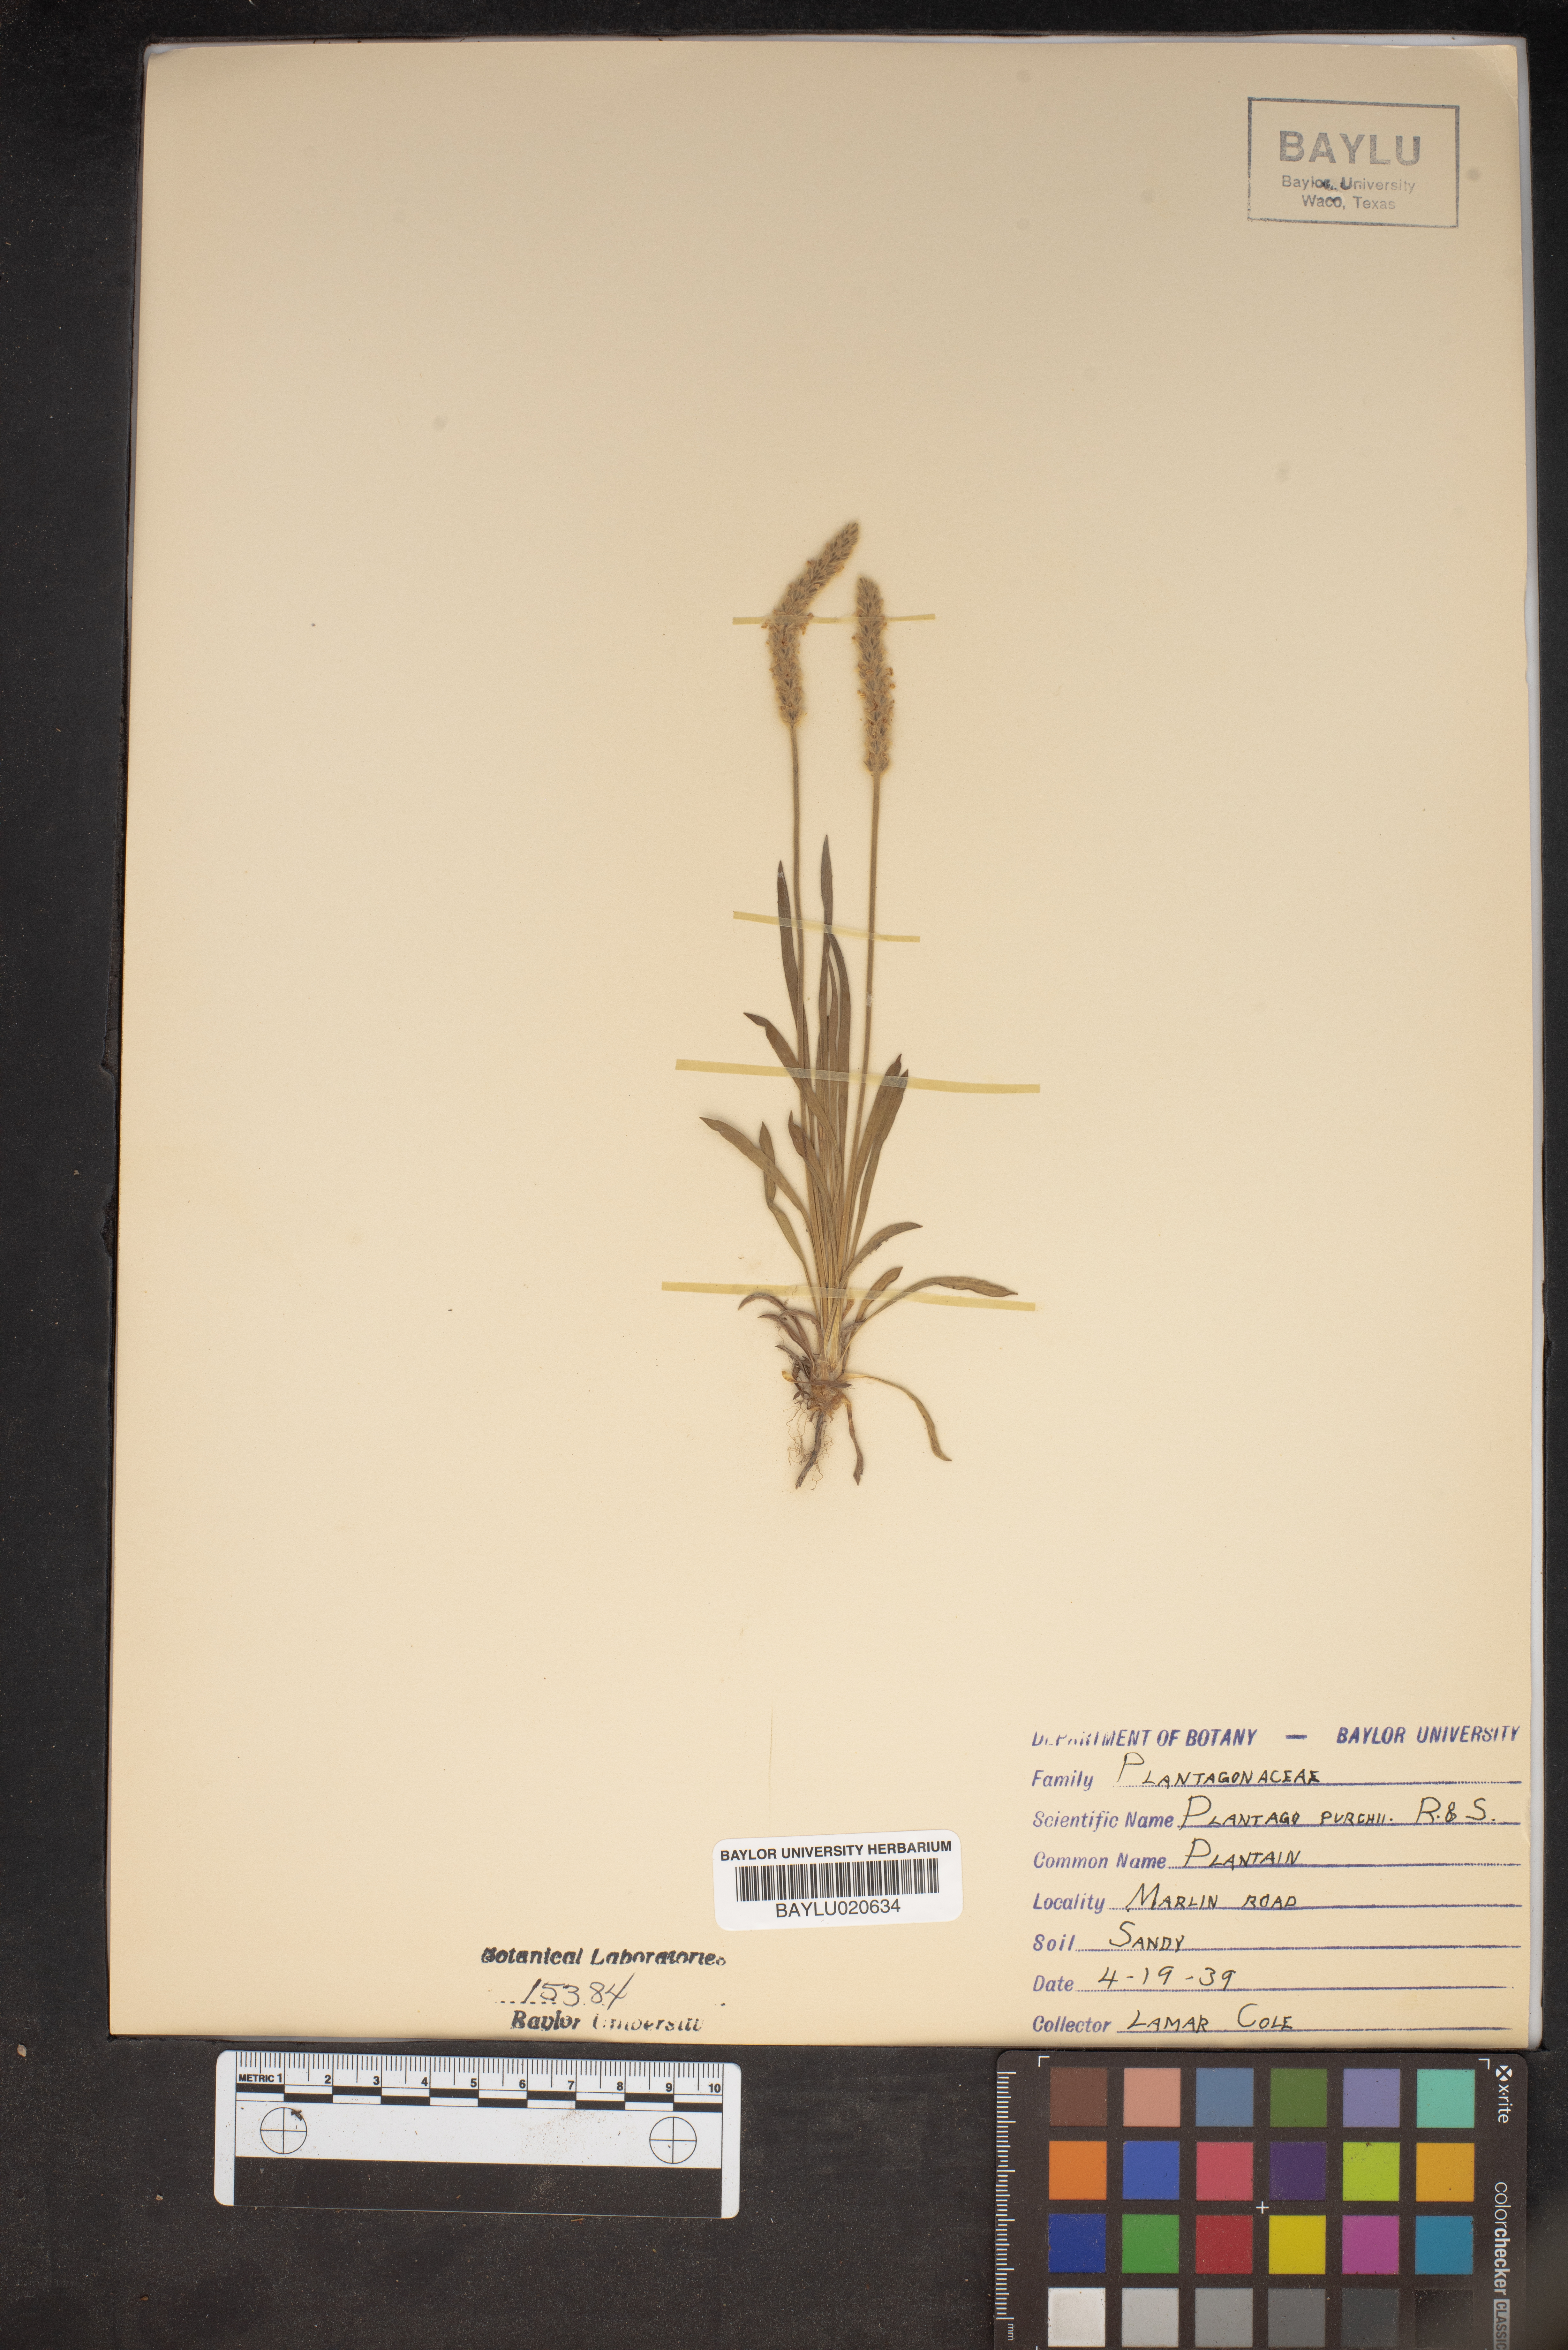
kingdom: Plantae
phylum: Tracheophyta
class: Magnoliopsida
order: Lamiales
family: Plantaginaceae
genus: Plantago
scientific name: Plantago patagonica
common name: Patagonia indian-wheat
